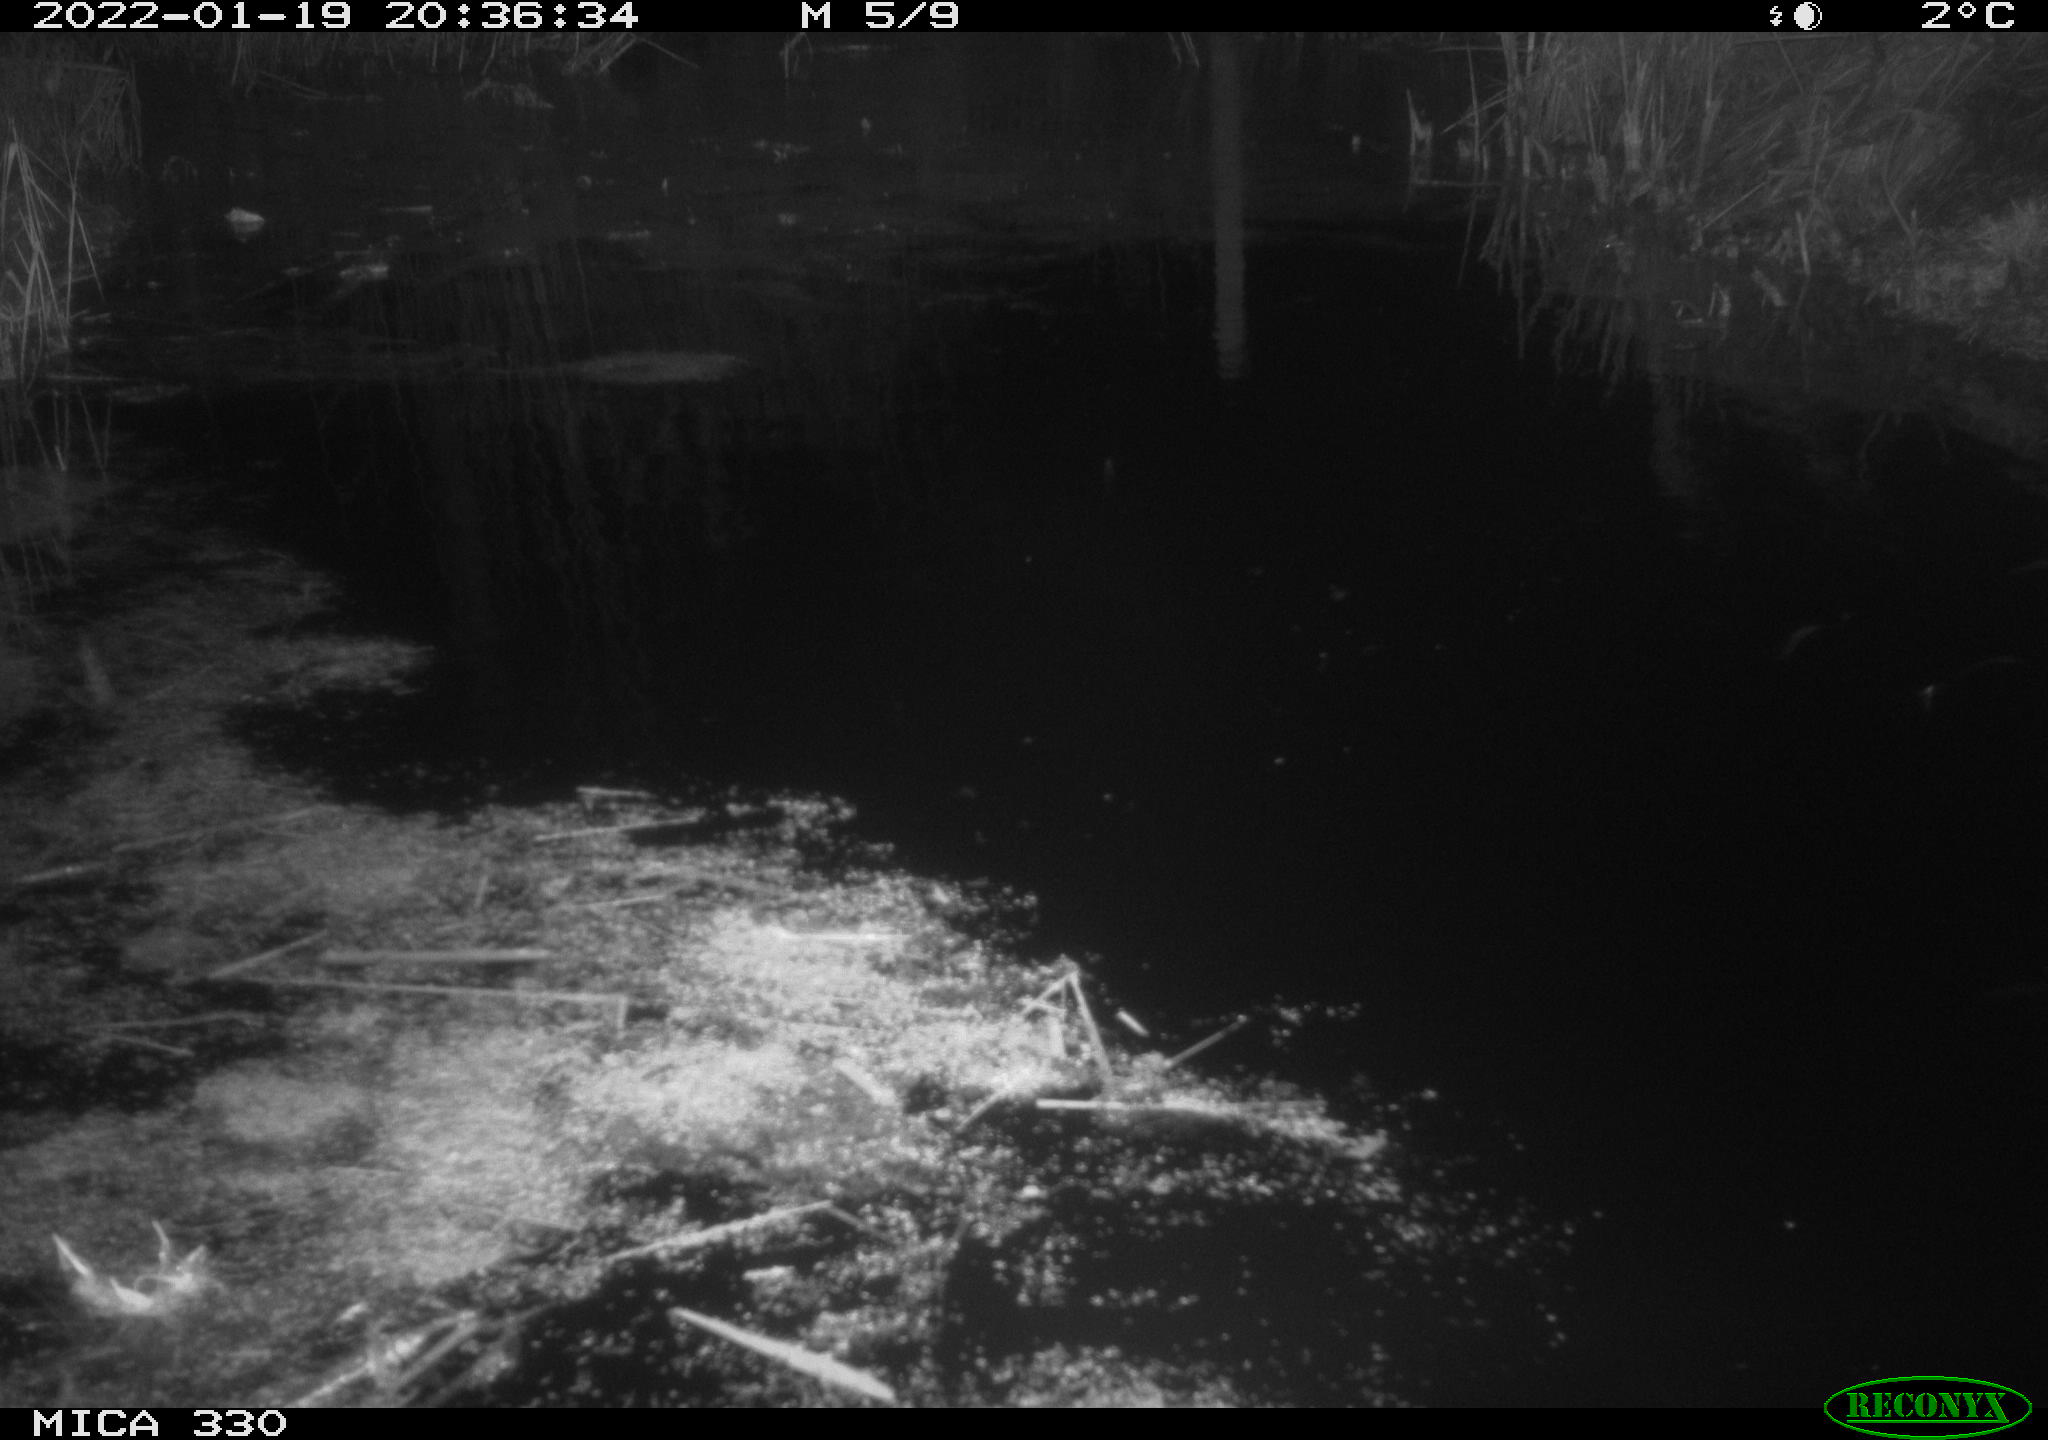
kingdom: Animalia
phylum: Chordata
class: Aves
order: Gruiformes
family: Rallidae
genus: Gallinula
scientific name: Gallinula chloropus
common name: Common moorhen
